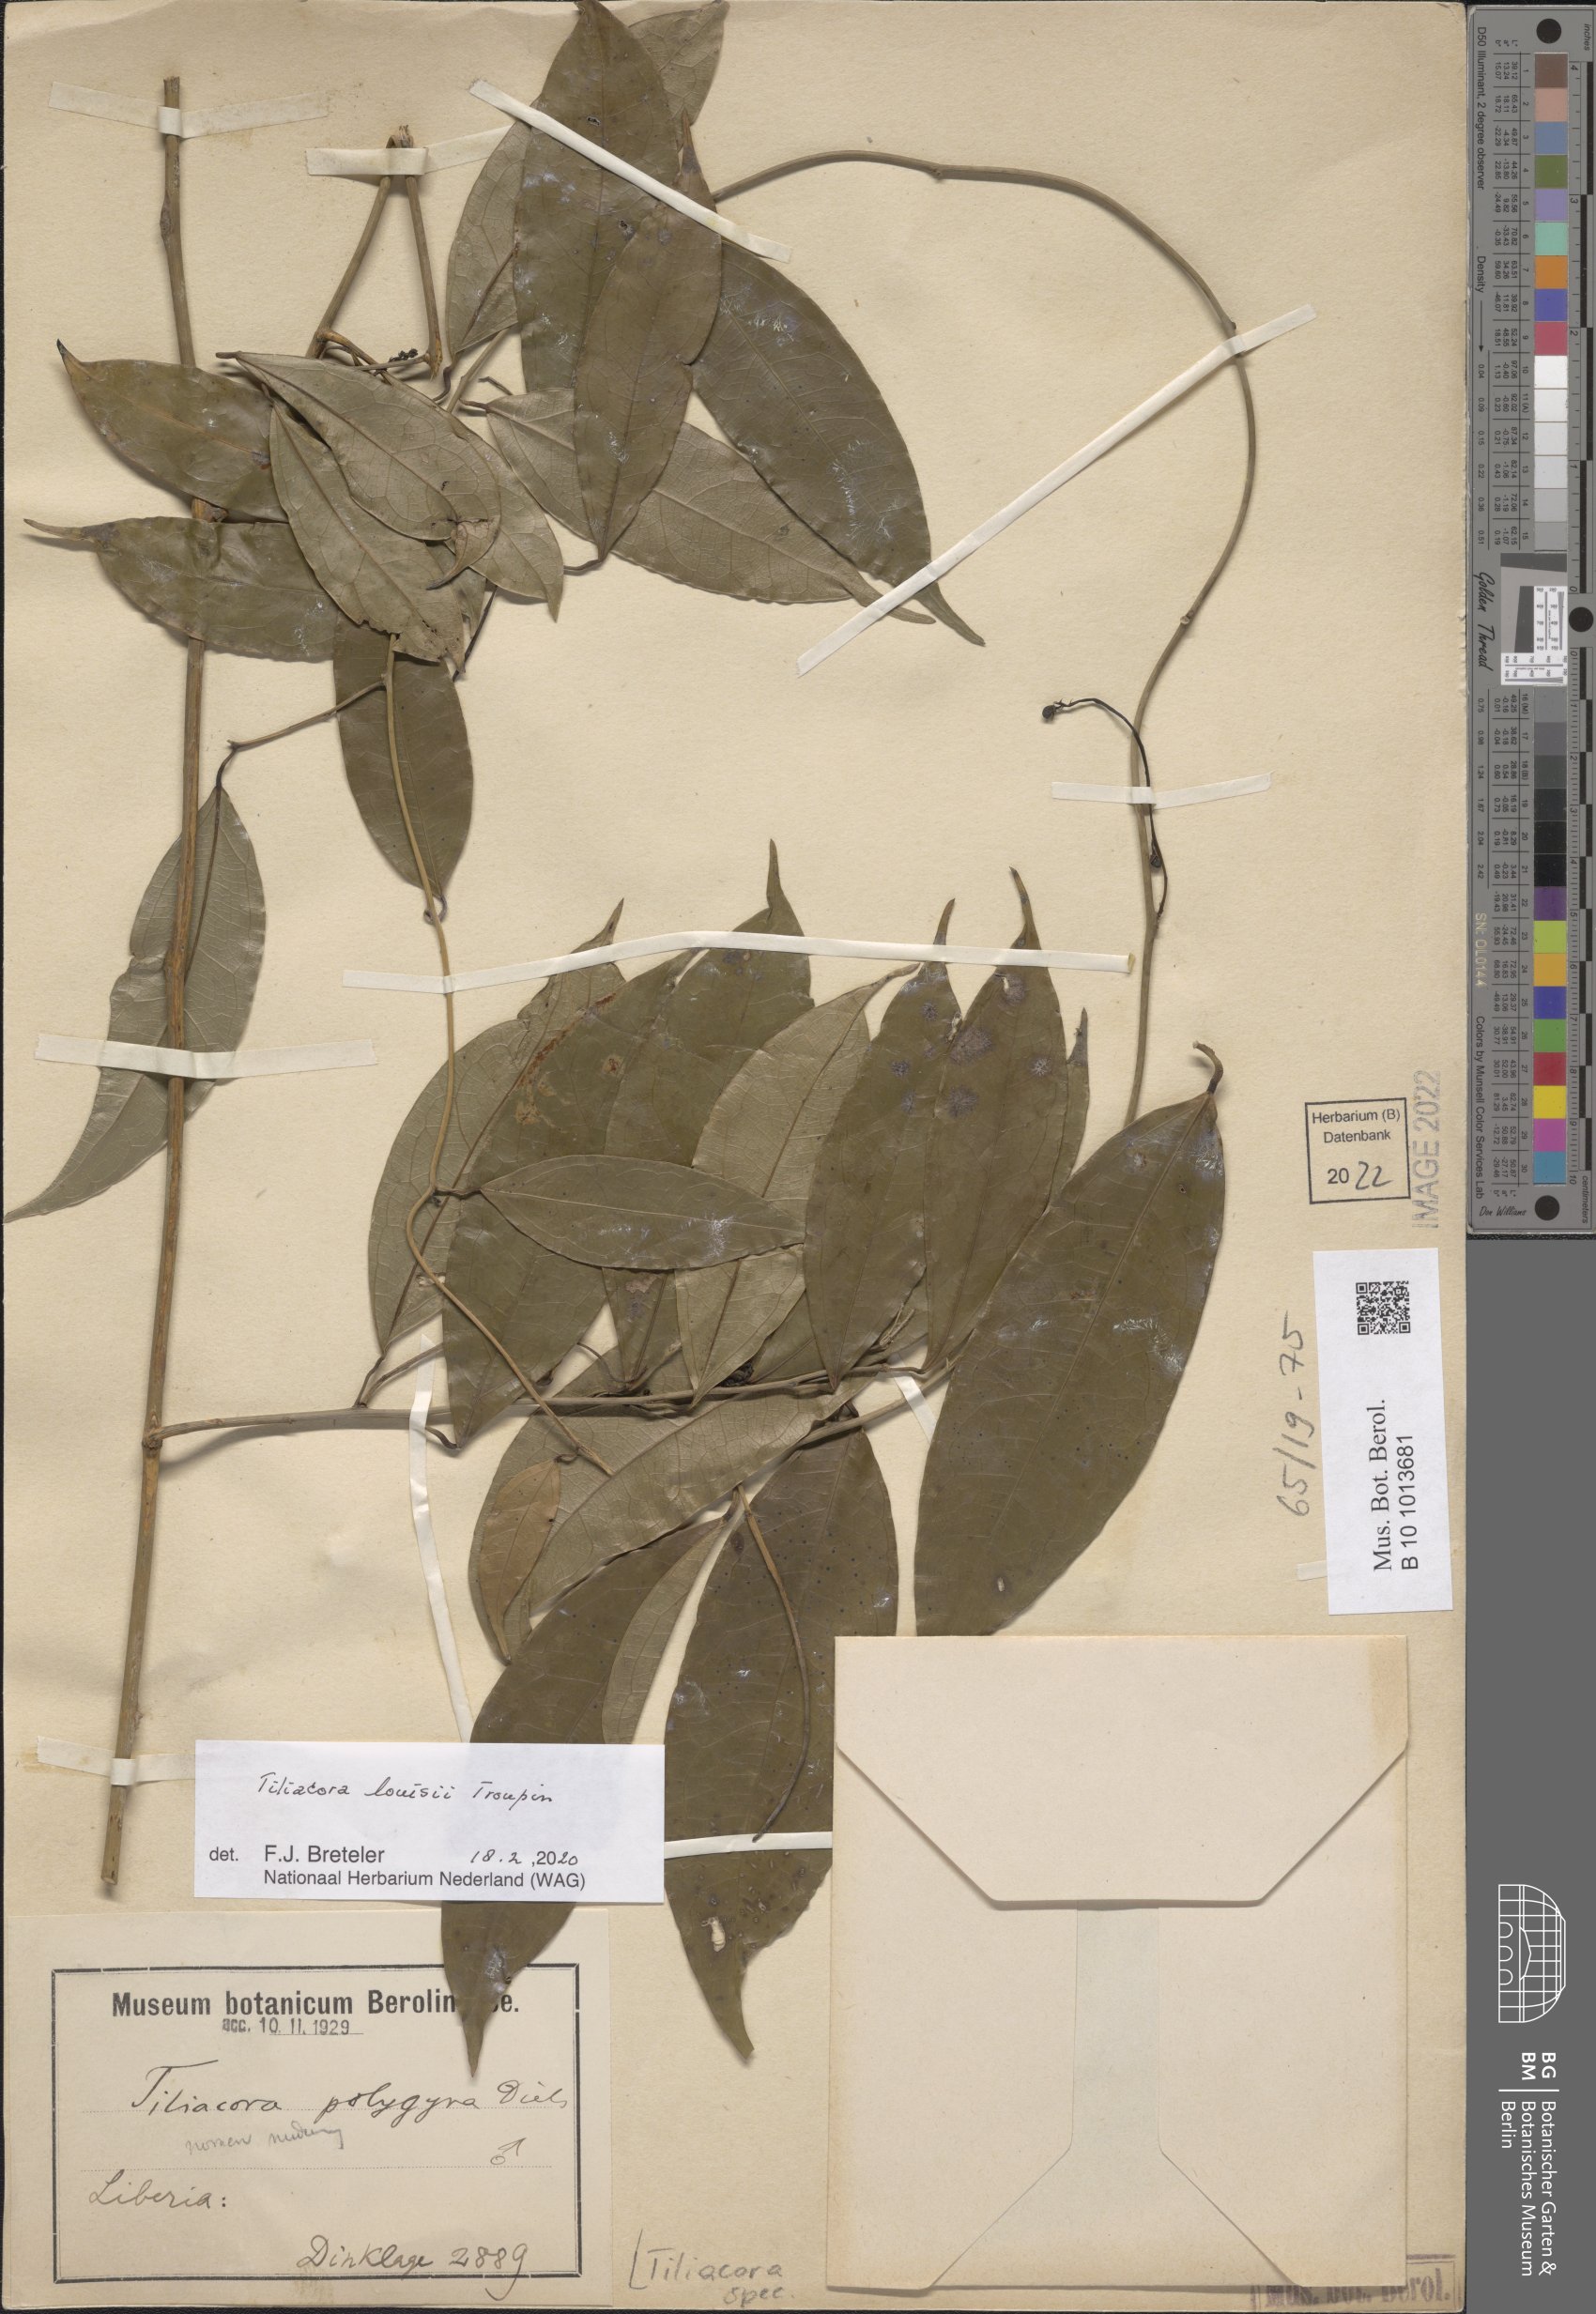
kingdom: Plantae
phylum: Tracheophyta
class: Magnoliopsida
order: Ranunculales
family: Menispermaceae
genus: Tiliacora
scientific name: Tiliacora louisii
